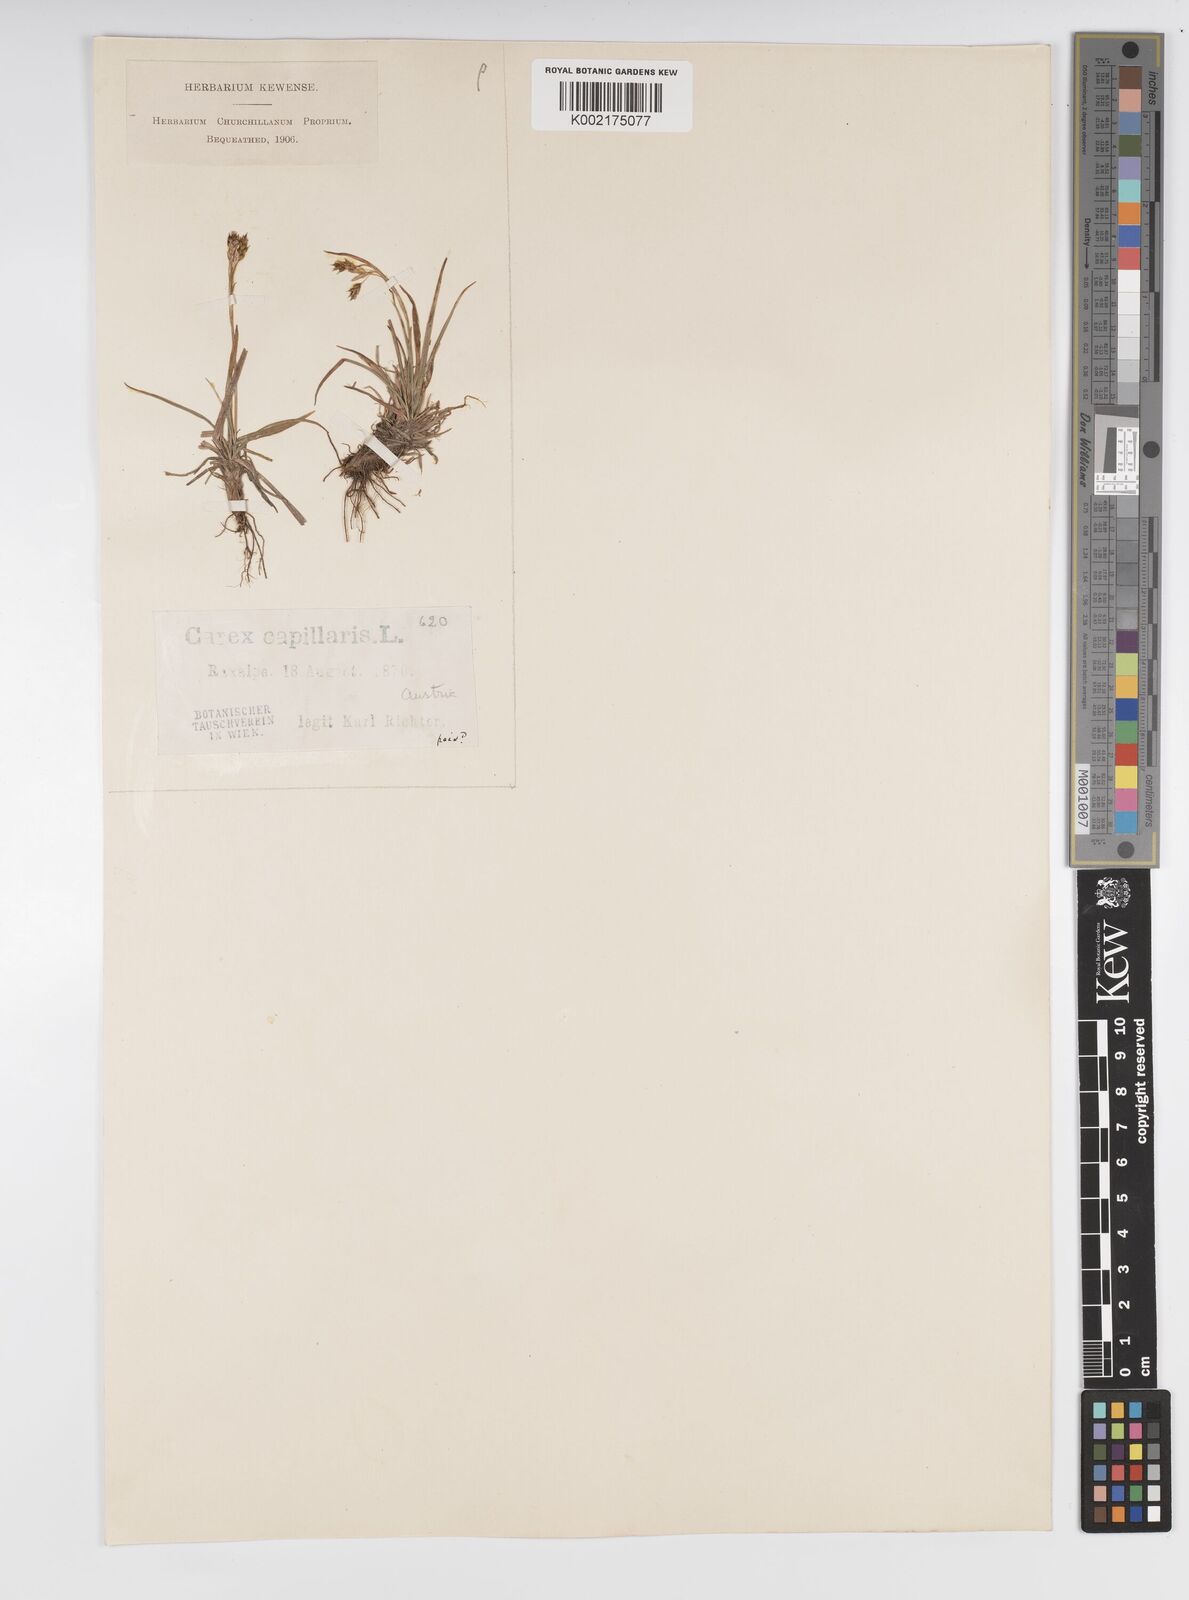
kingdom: Plantae
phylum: Tracheophyta
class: Liliopsida
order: Poales
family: Cyperaceae
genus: Carex
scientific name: Carex capillaris
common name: Hair sedge
